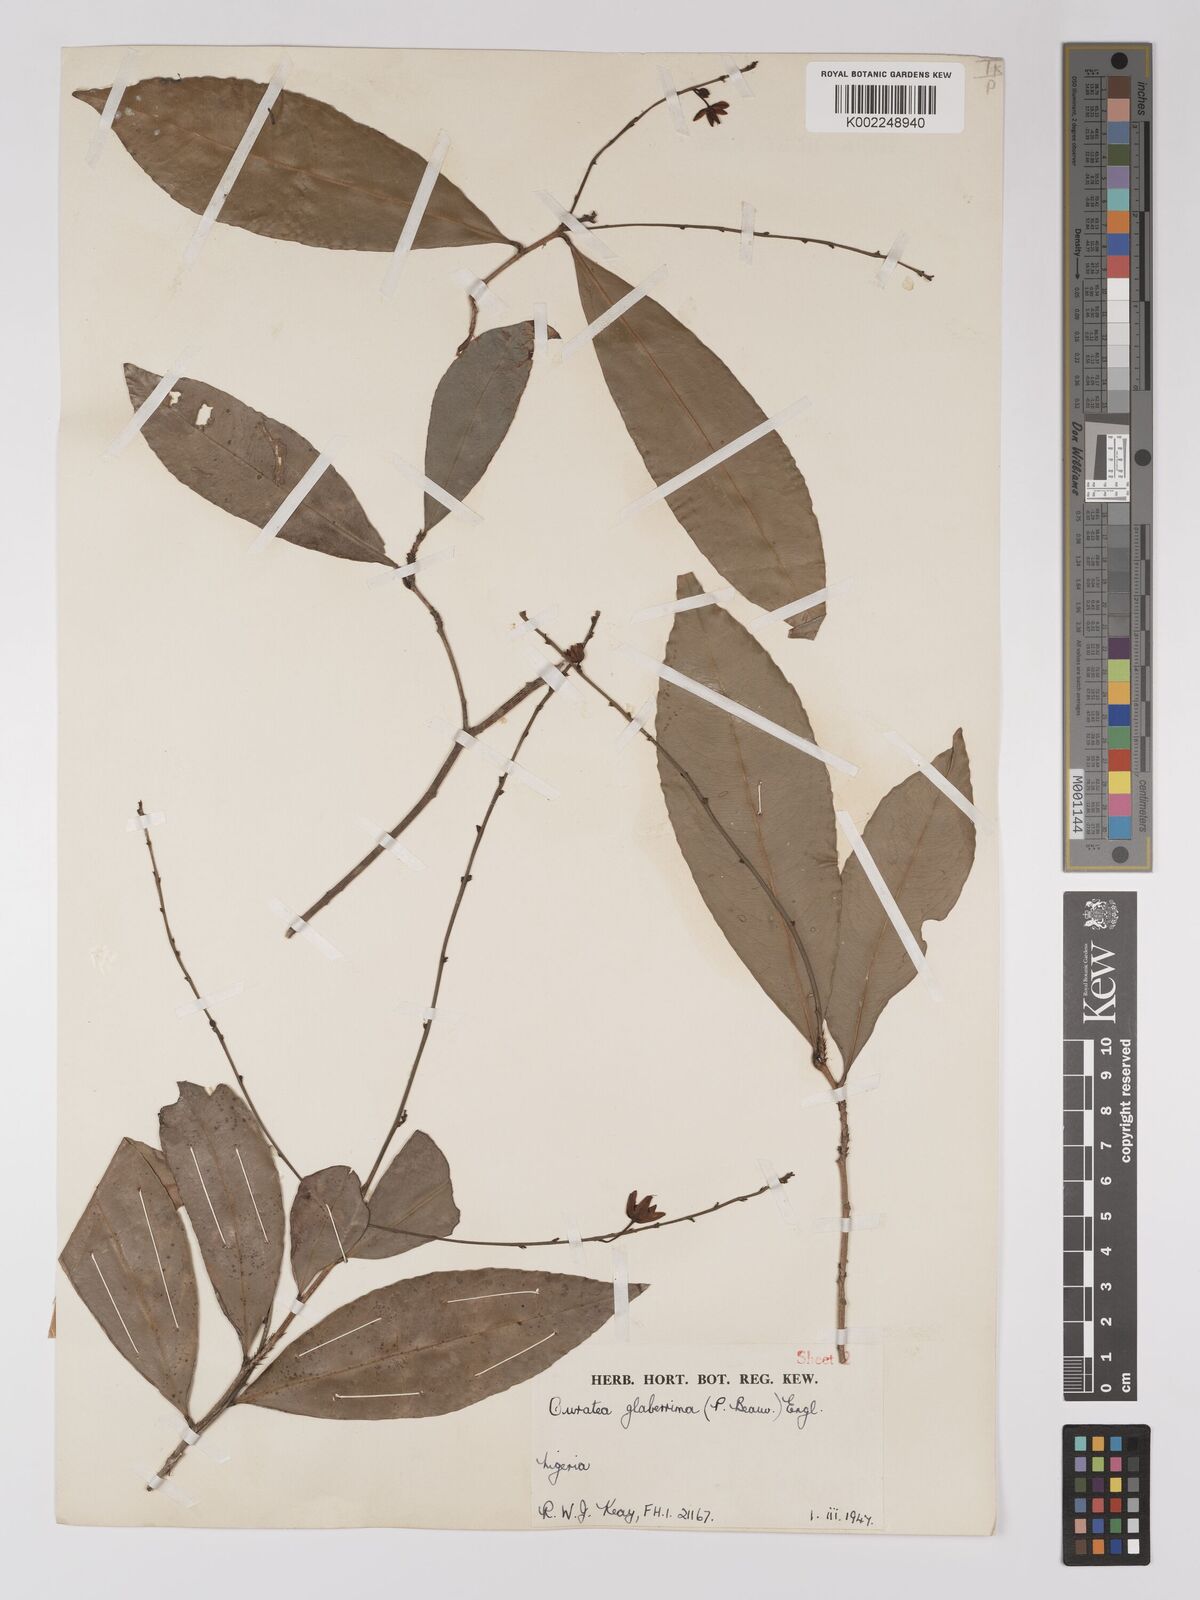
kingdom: Plantae
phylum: Tracheophyta
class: Magnoliopsida
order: Malpighiales
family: Ochnaceae
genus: Campylospermum
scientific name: Campylospermum glaberrimum
